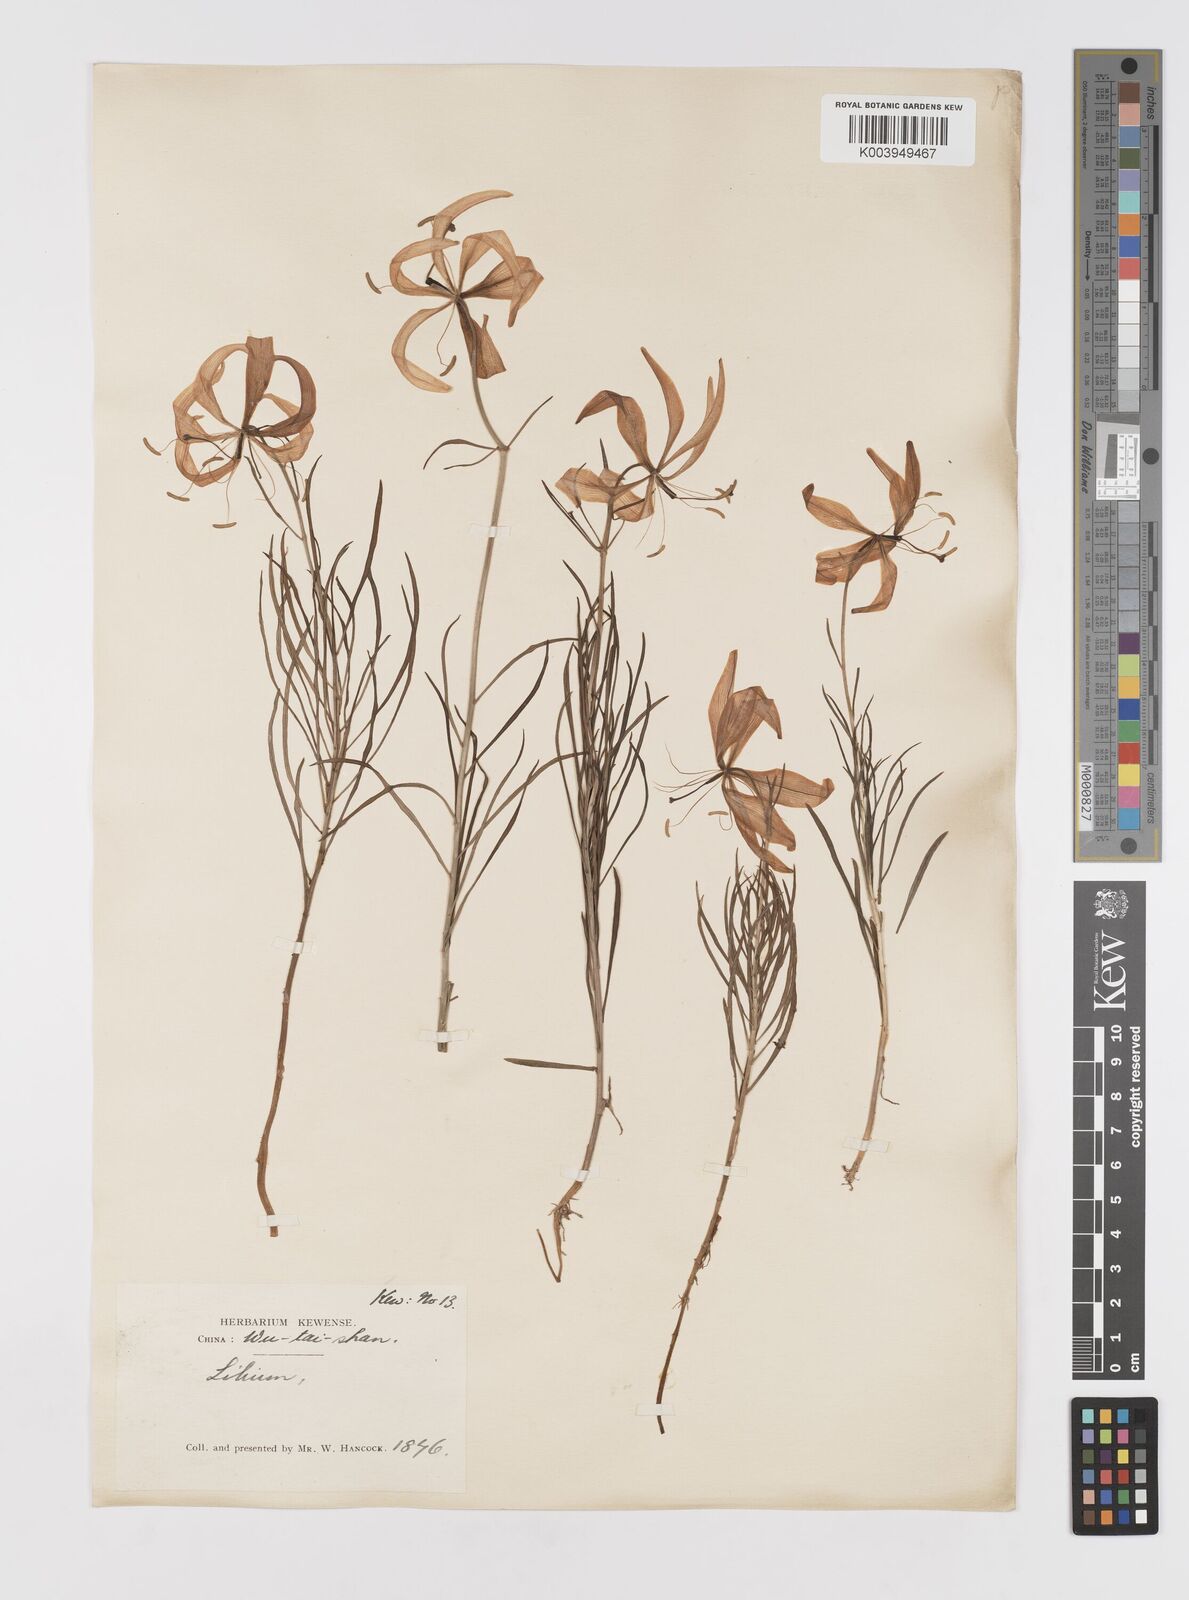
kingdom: Plantae
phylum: Tracheophyta
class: Liliopsida
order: Liliales
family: Liliaceae
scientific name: Liliaceae
